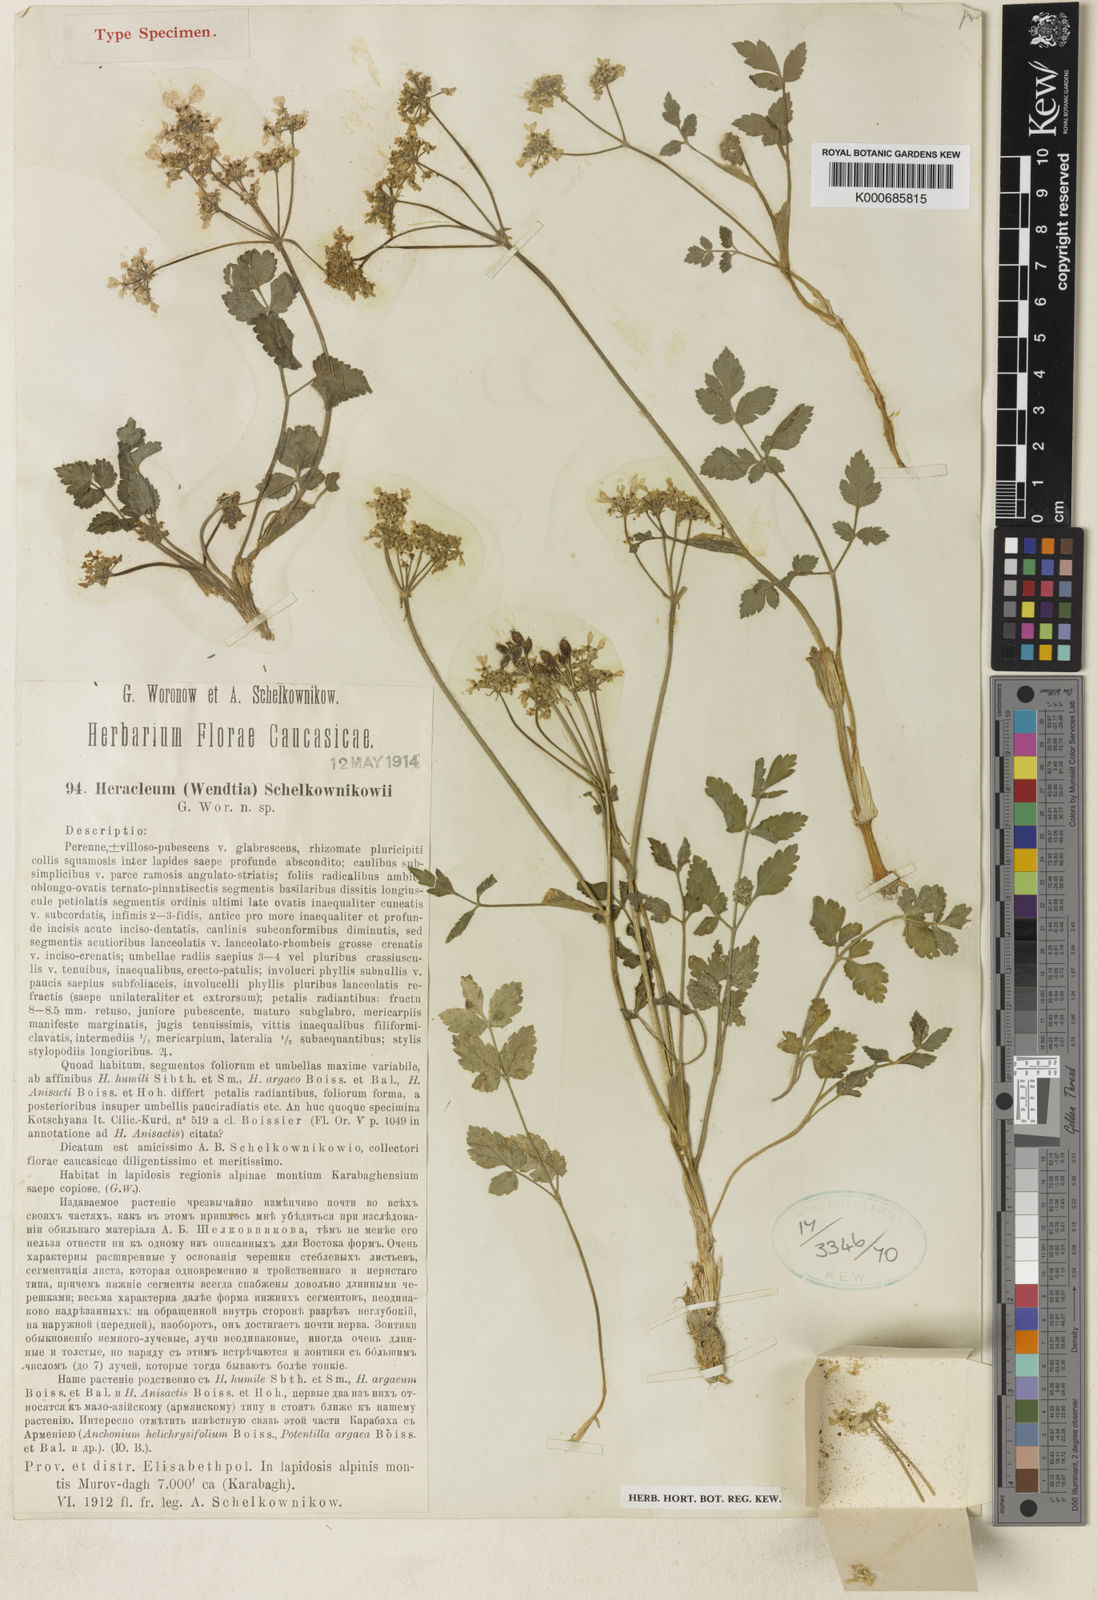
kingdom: Plantae
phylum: Tracheophyta
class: Magnoliopsida
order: Apiales
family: Apiaceae
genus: Heracleum
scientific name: Heracleum
